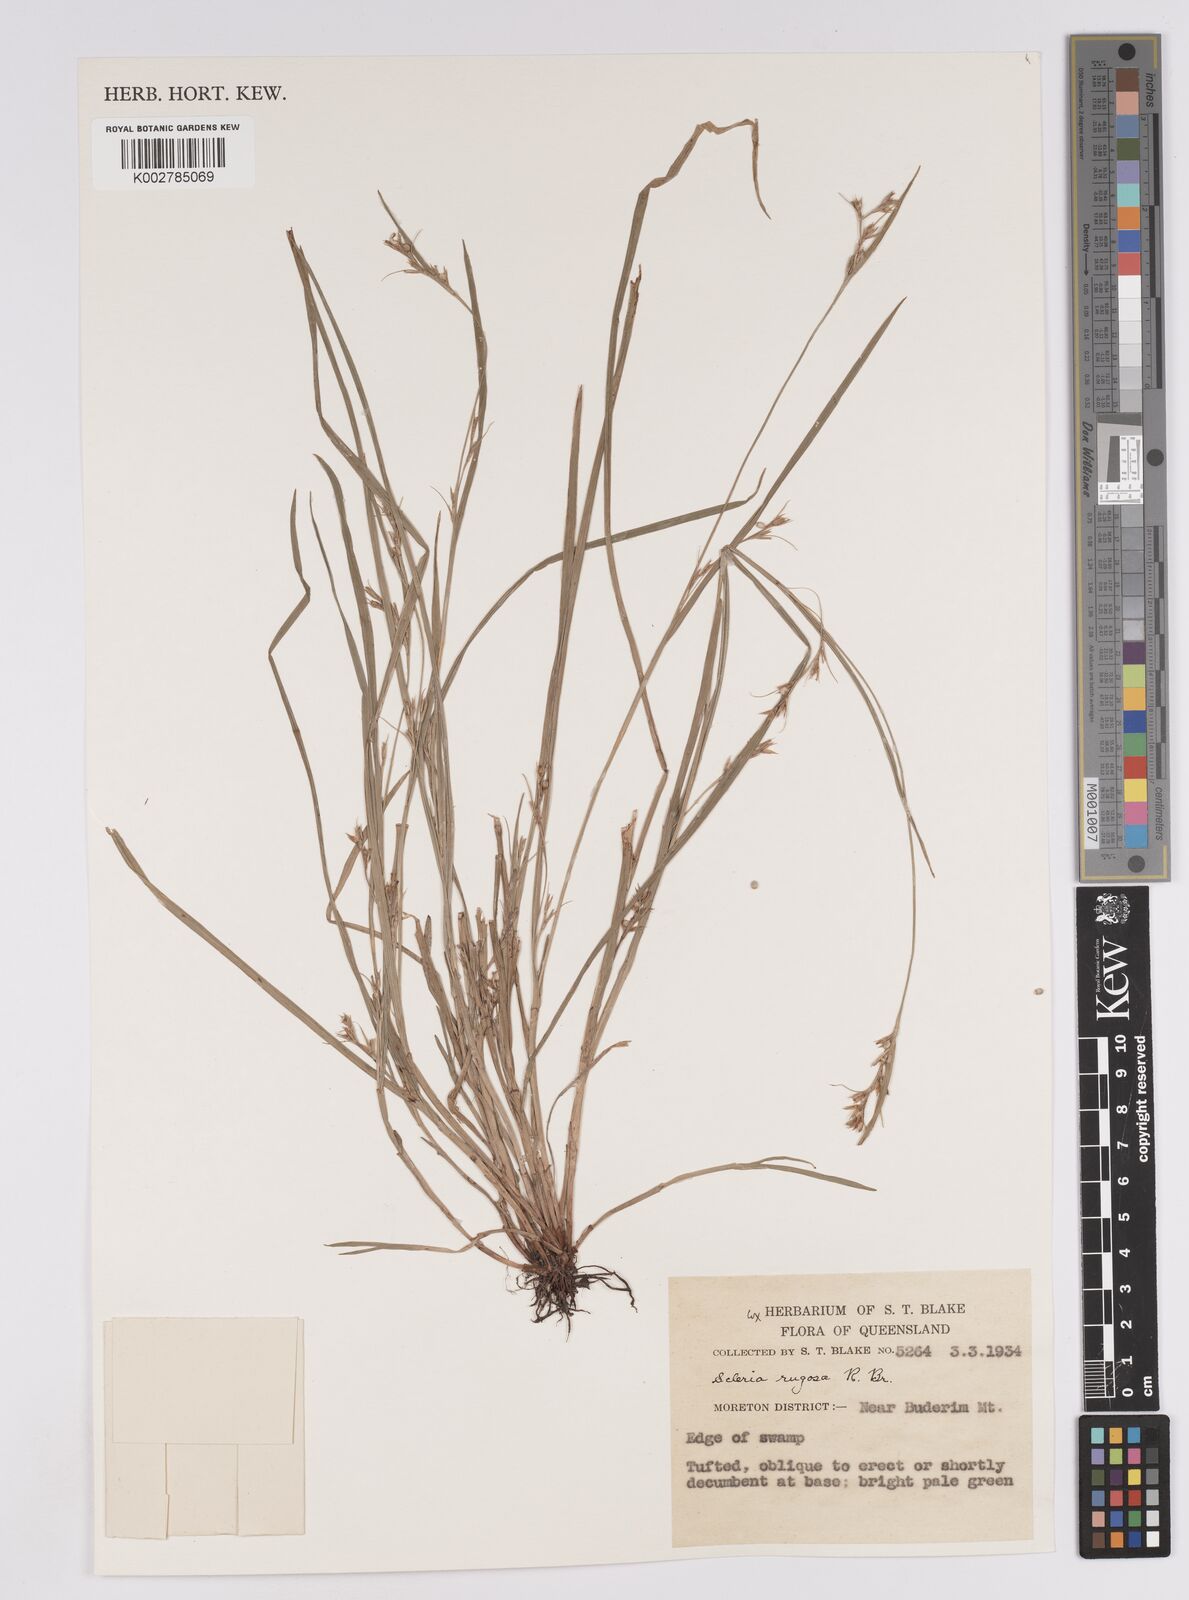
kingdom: Plantae
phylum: Tracheophyta
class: Liliopsida
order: Poales
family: Cyperaceae
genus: Scleria
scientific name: Scleria rugosa
